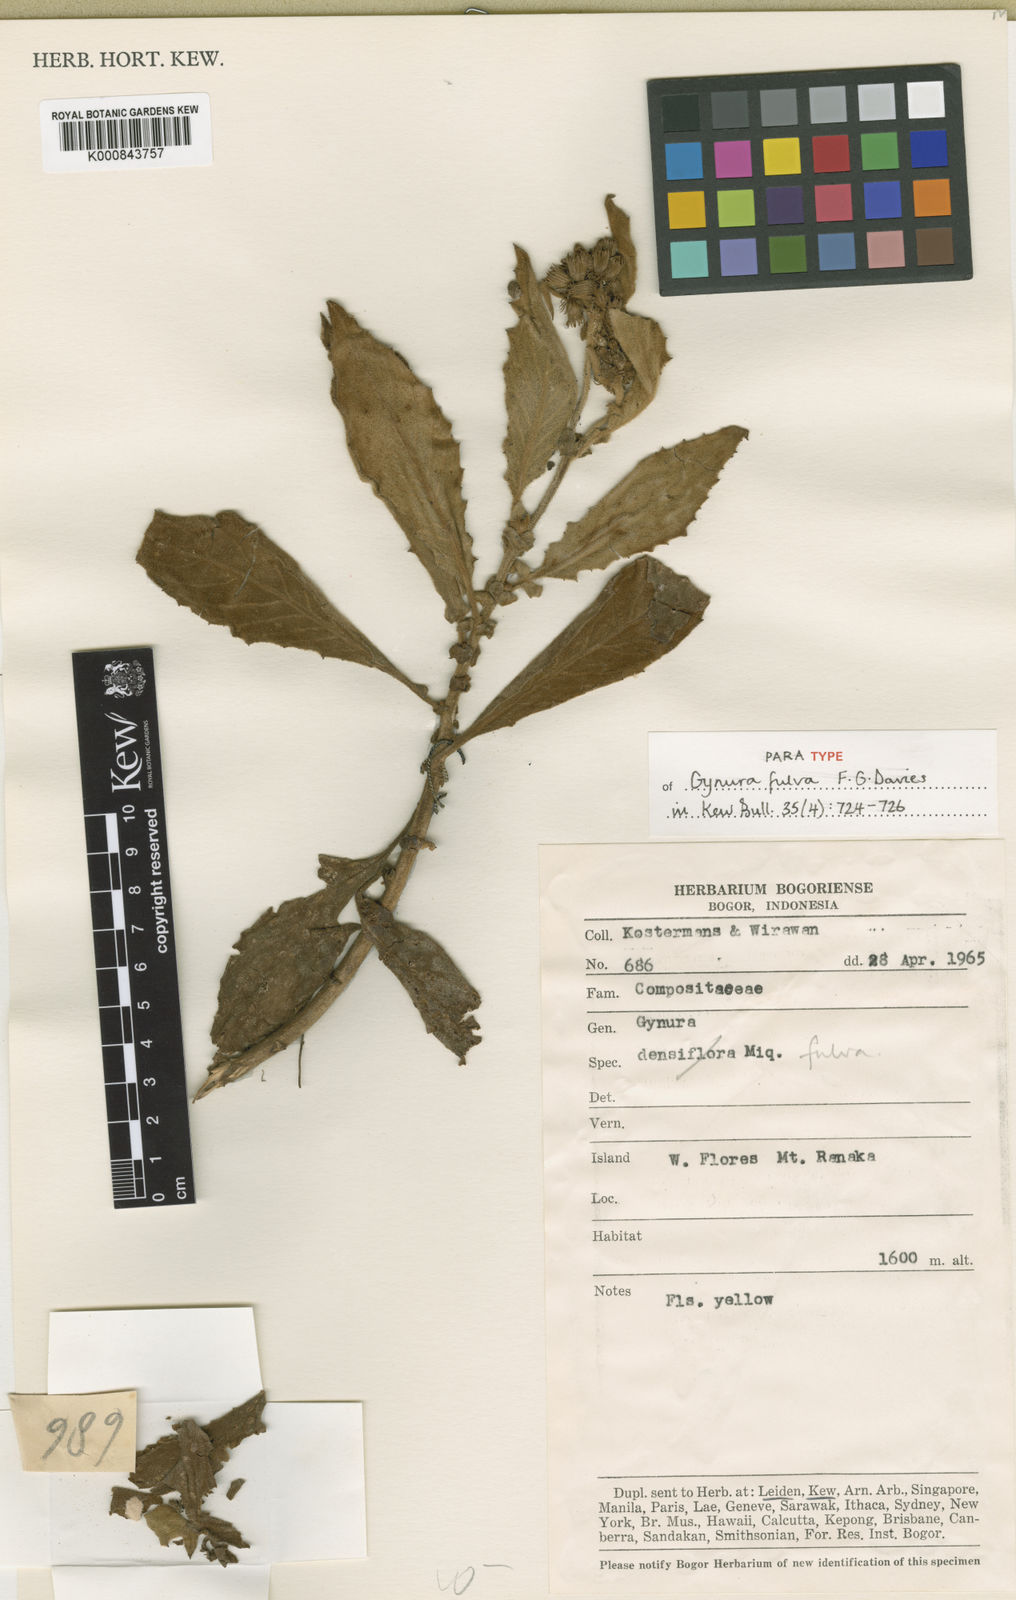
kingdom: Plantae
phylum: Tracheophyta
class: Magnoliopsida
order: Asterales
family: Asteraceae
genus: Gynura
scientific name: Gynura fulva
